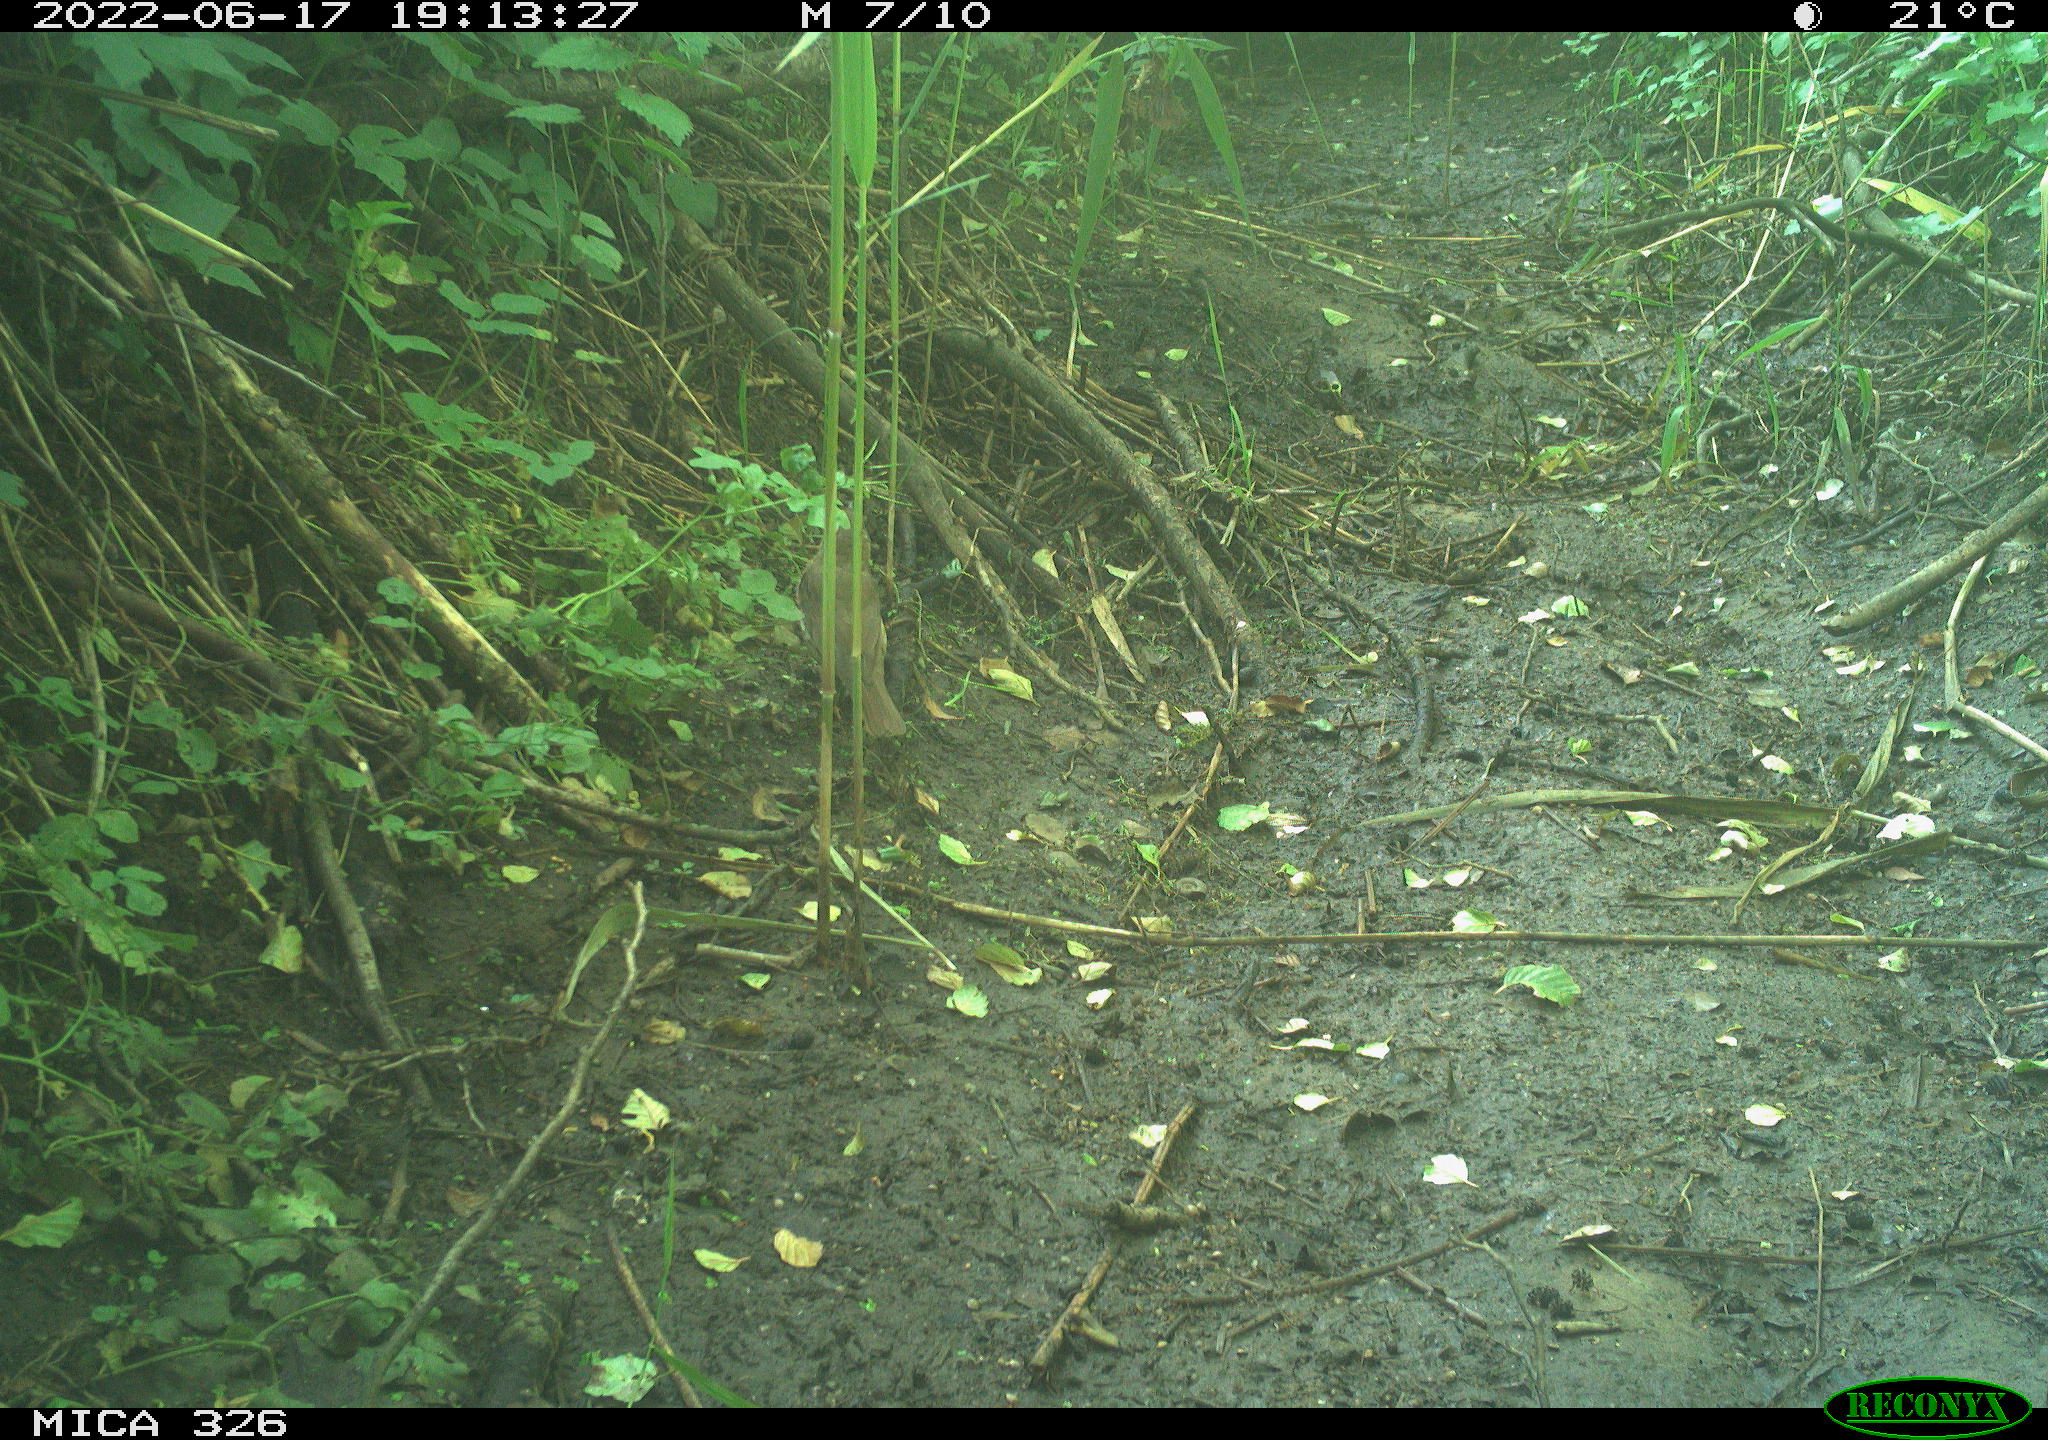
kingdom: Animalia
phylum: Chordata
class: Aves
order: Passeriformes
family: Turdidae
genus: Turdus
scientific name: Turdus
